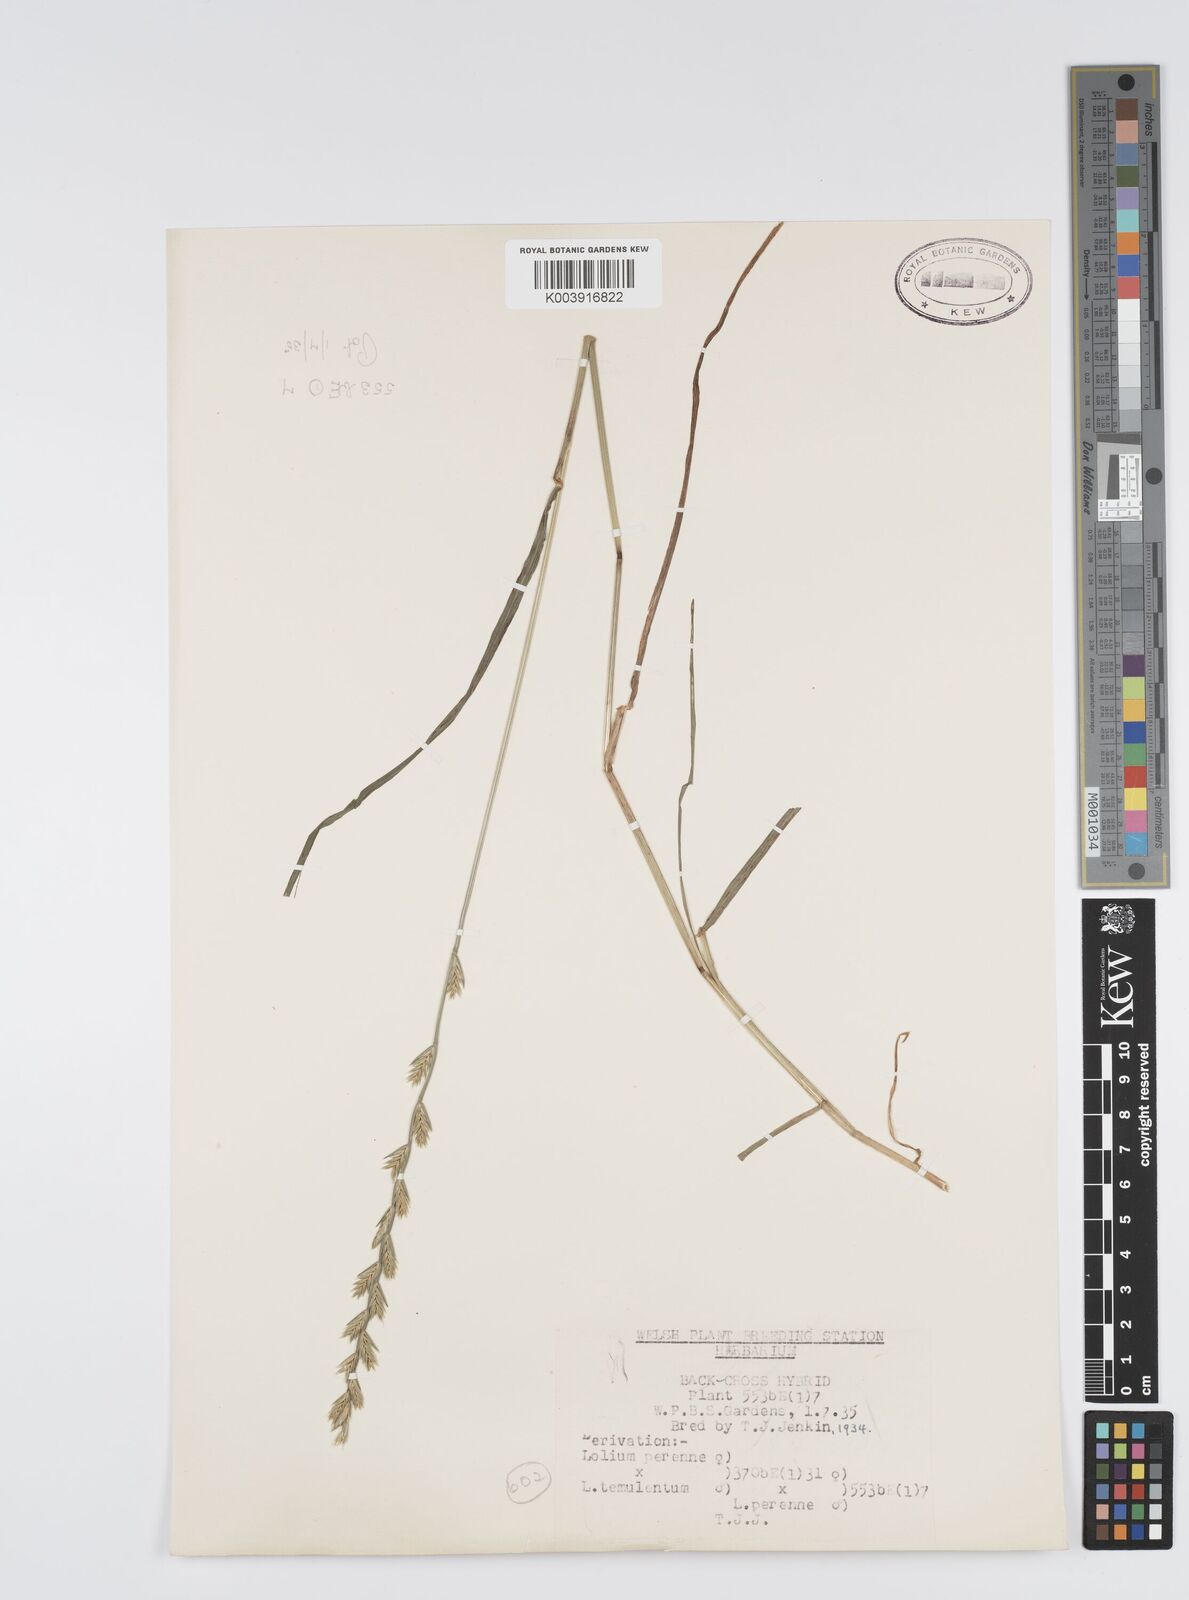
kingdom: Plantae
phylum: Tracheophyta
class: Liliopsida
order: Poales
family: Poaceae
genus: Lolium
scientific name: Lolium perenne
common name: Perennial ryegrass
